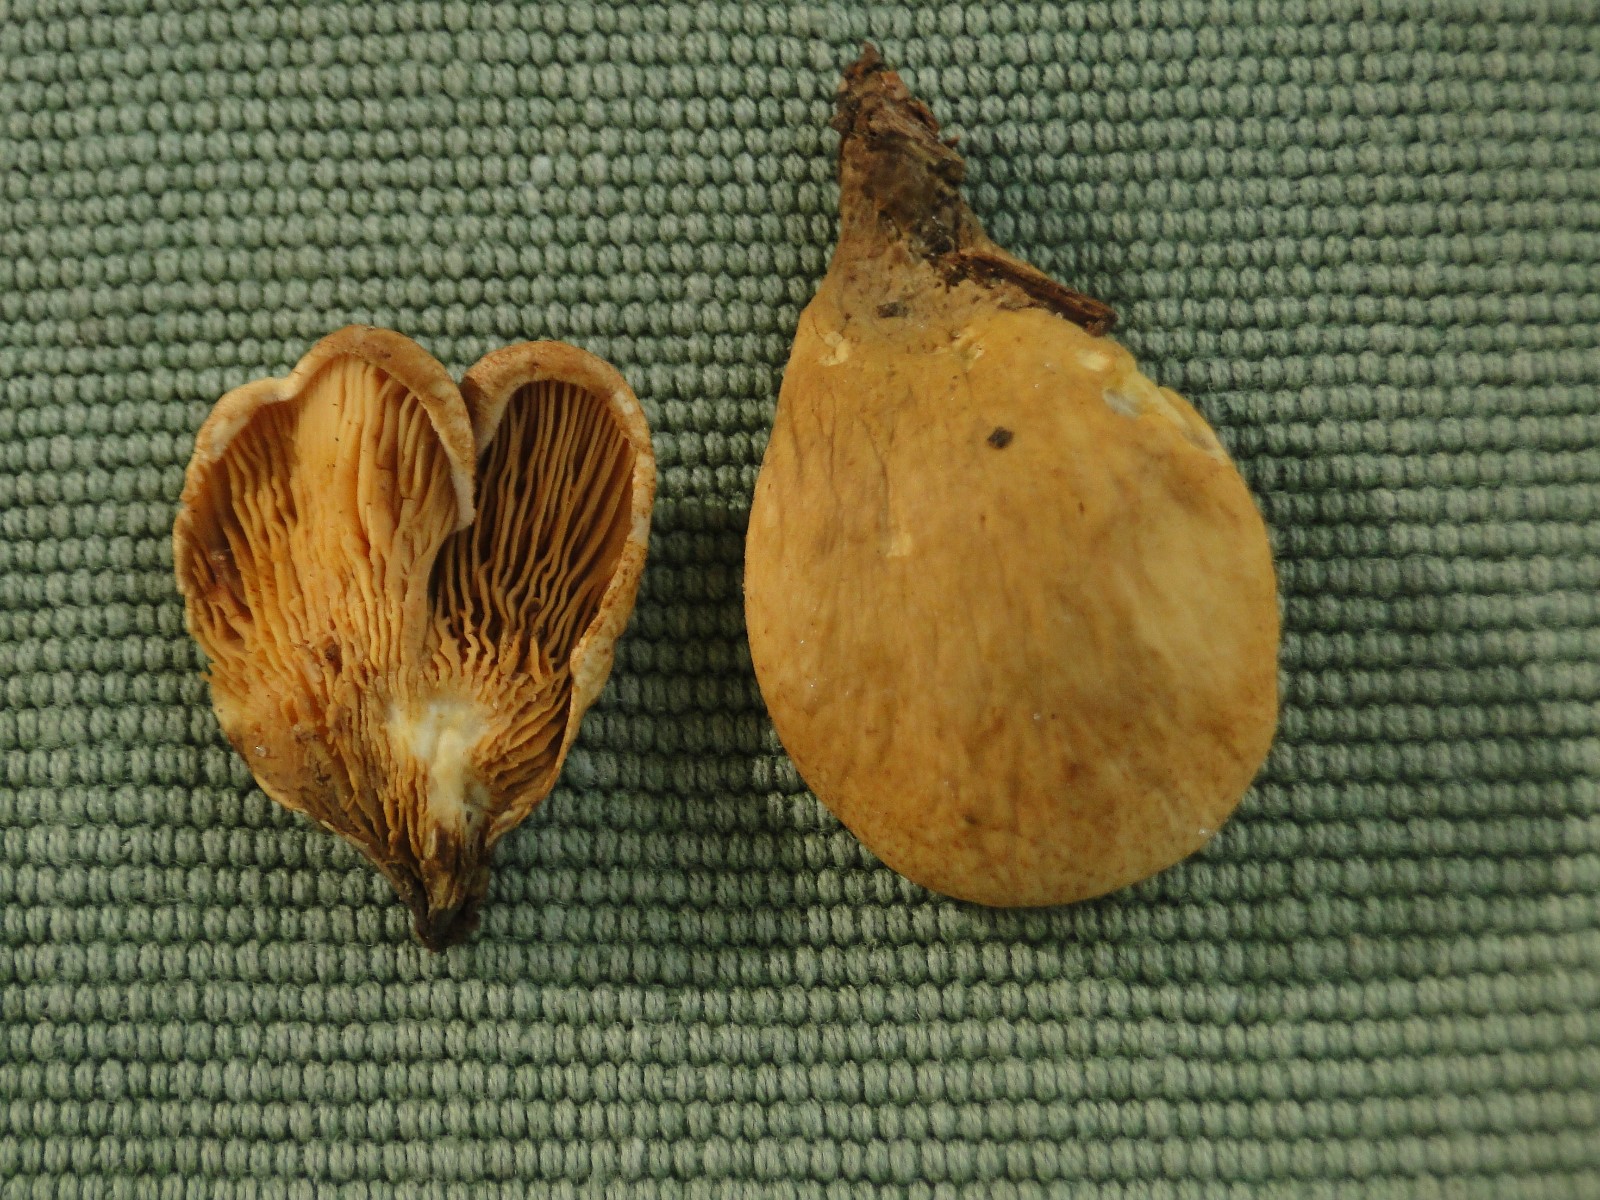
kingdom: Fungi
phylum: Basidiomycota
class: Agaricomycetes
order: Boletales
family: Tapinellaceae
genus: Tapinella
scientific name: Tapinella panuoides
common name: tømmer-viftesvamp
